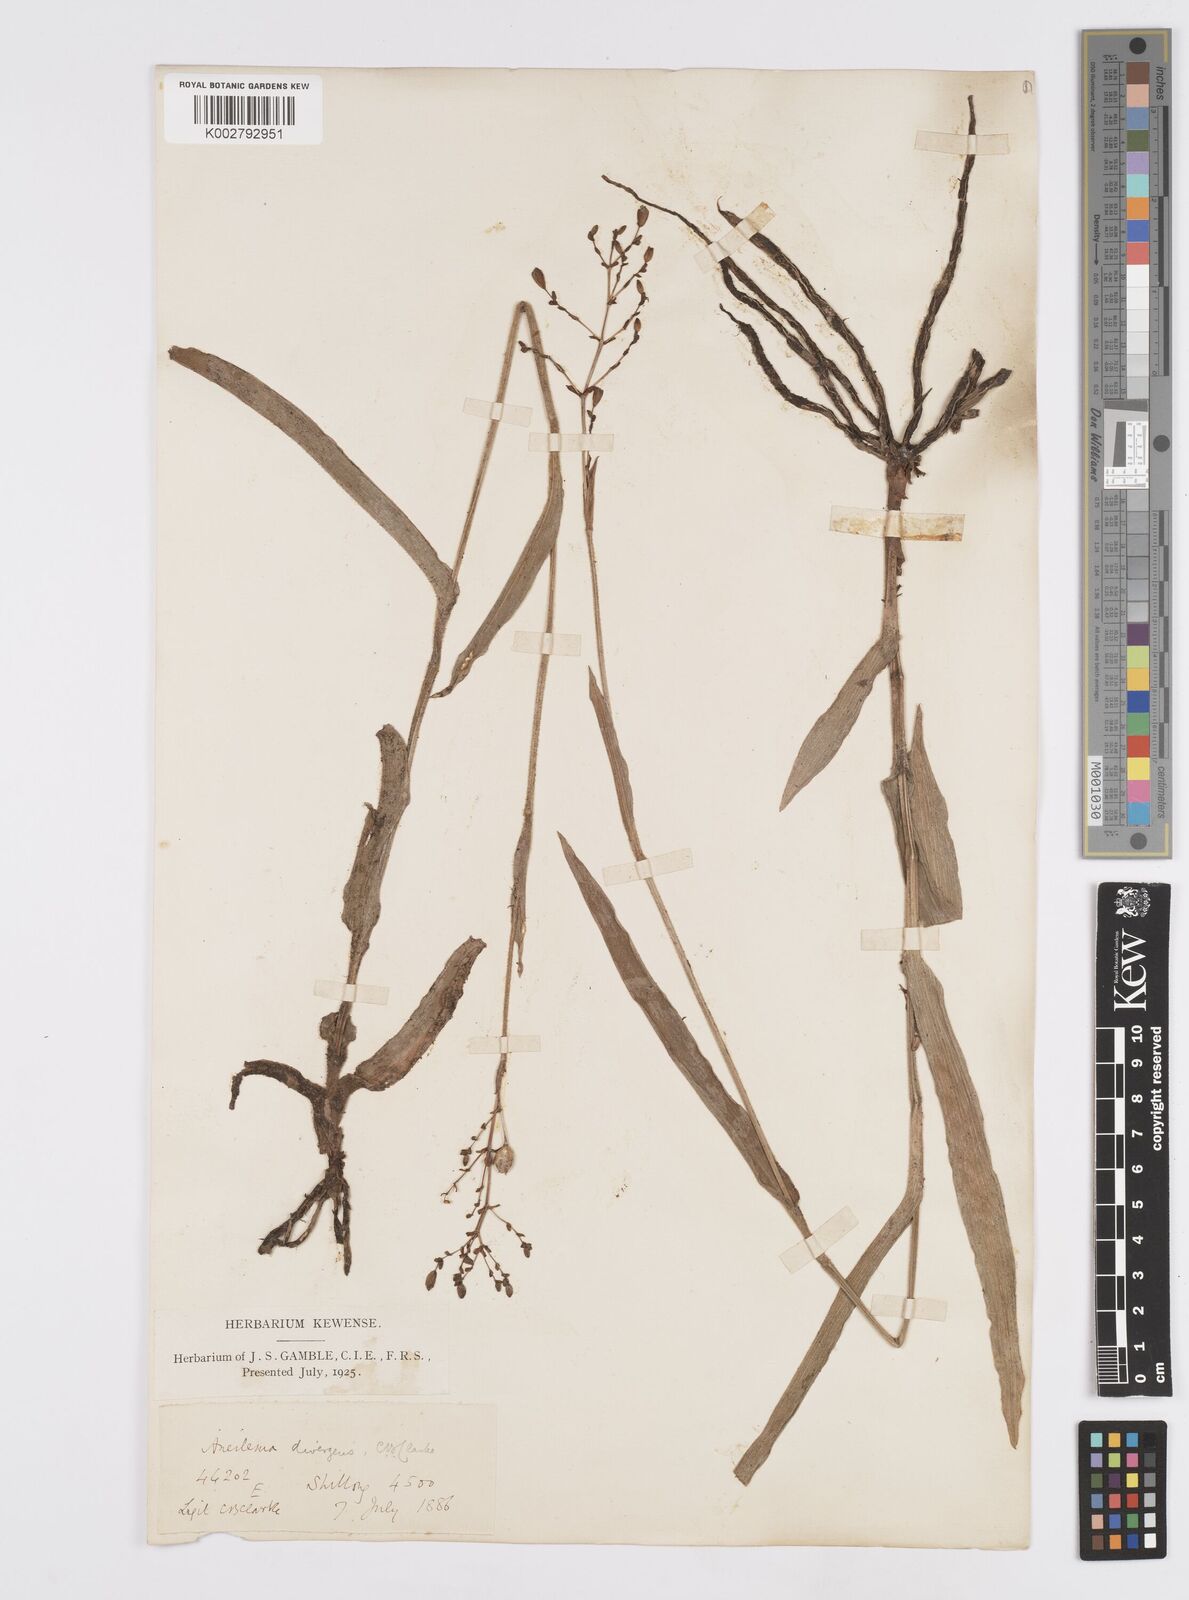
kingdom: Plantae
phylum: Tracheophyta
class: Liliopsida
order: Commelinales
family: Commelinaceae
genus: Murdannia
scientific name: Murdannia divergens
